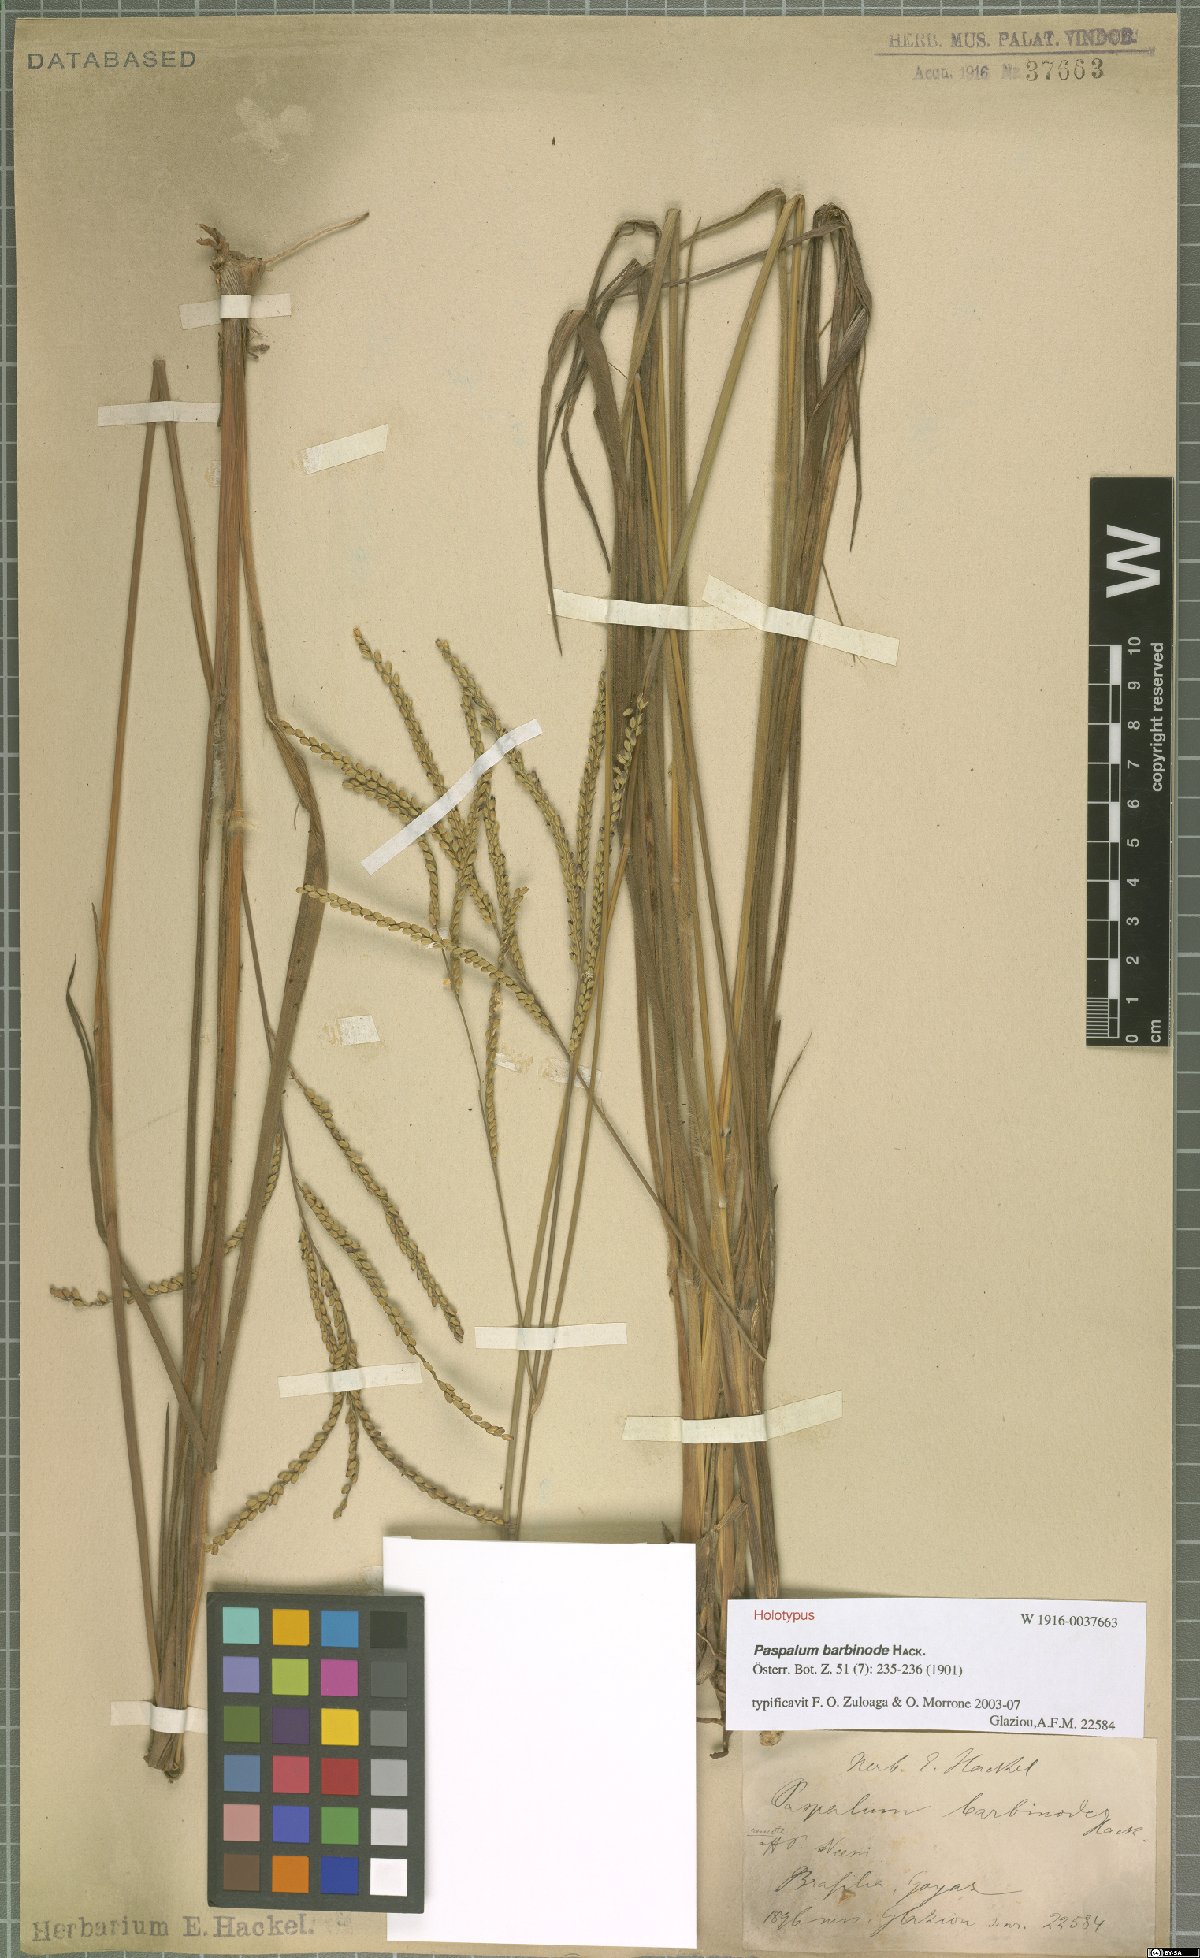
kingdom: Plantae
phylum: Tracheophyta
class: Liliopsida
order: Poales
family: Poaceae
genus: Paspalum
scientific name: Paspalum barbinode
